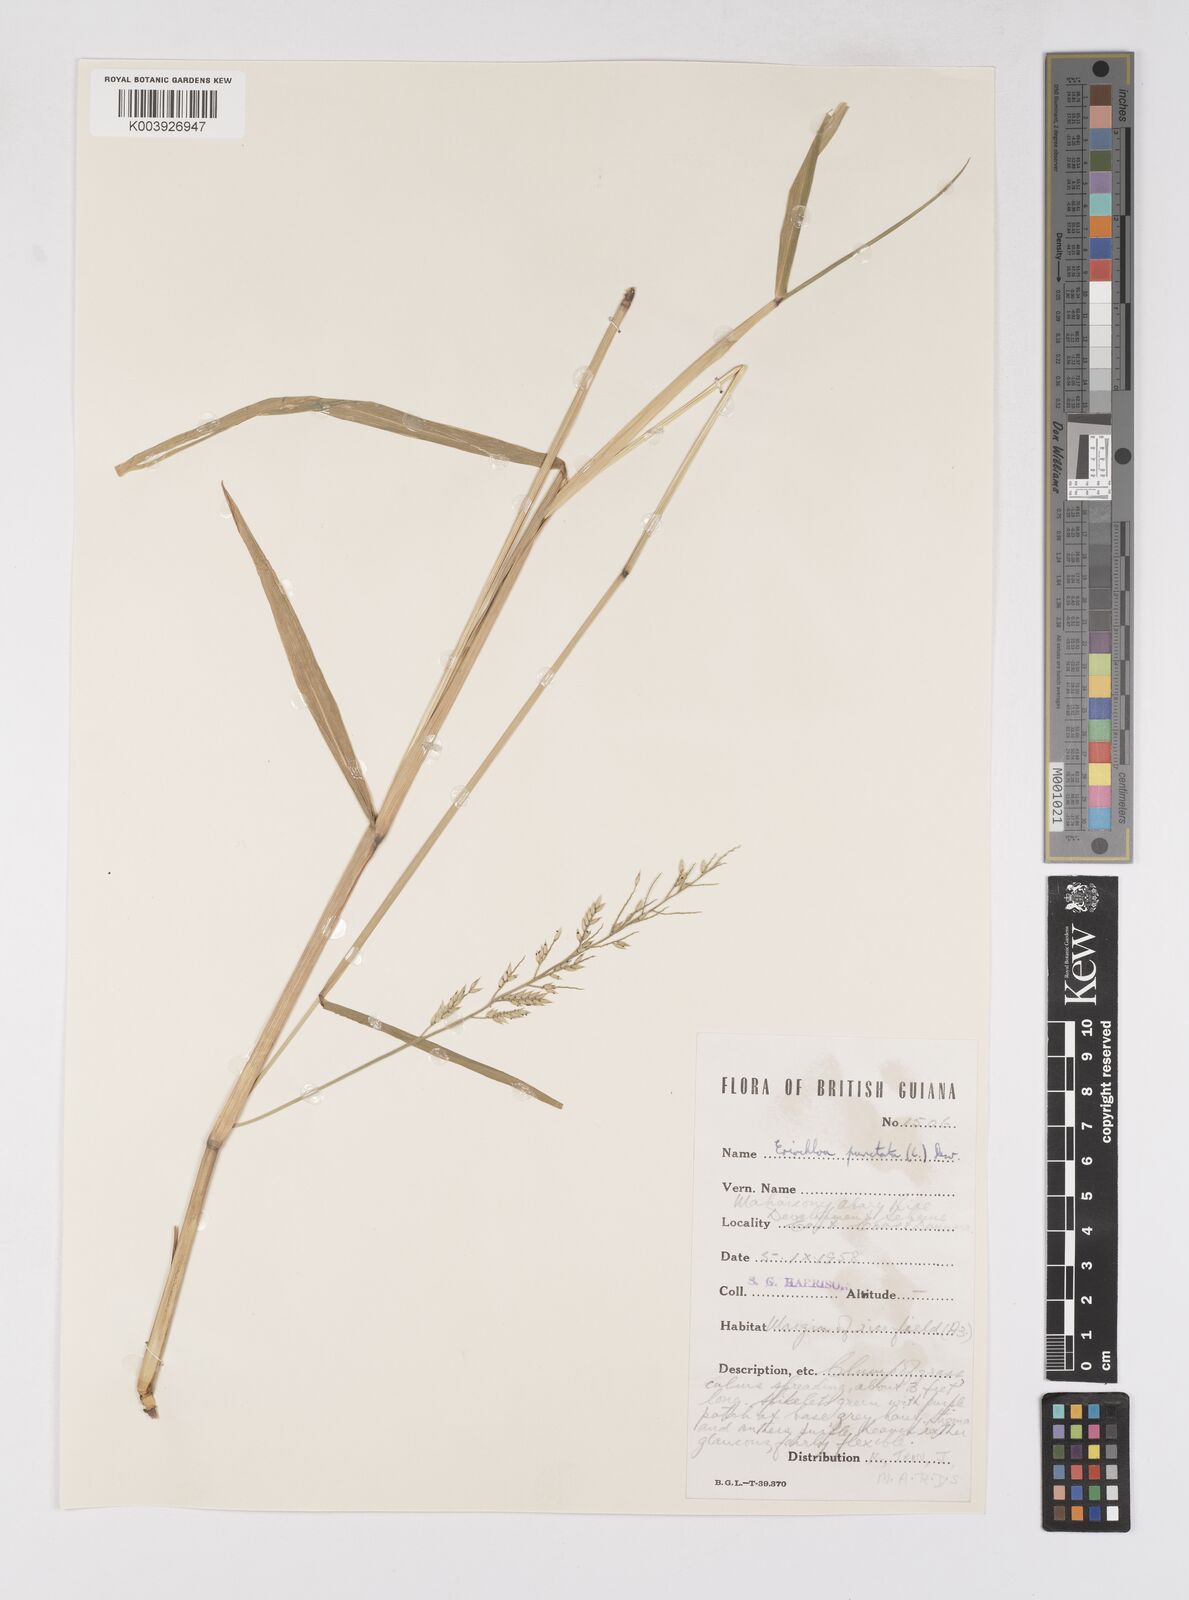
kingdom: Plantae
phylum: Tracheophyta
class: Liliopsida
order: Poales
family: Poaceae
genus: Eriochloa
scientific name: Eriochloa punctata
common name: Louisiana cupgrass
